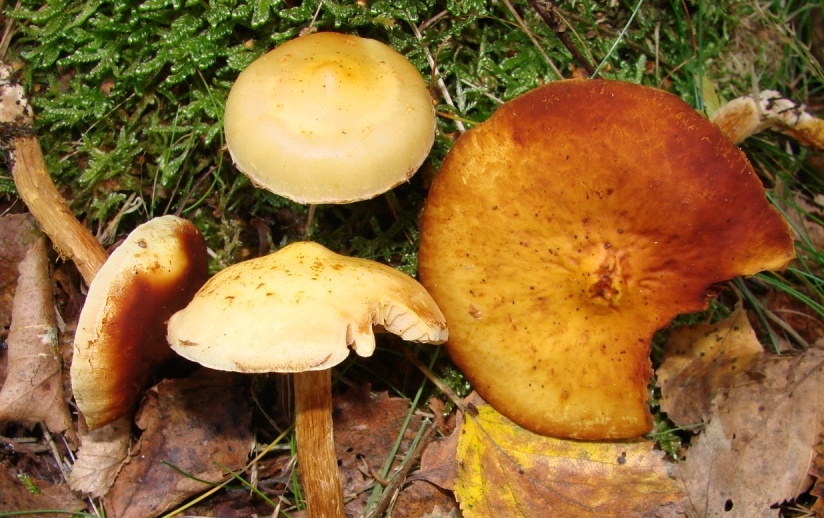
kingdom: Fungi
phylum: Basidiomycota
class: Agaricomycetes
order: Agaricales
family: Hymenogastraceae
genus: Flammula
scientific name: Flammula alnicola
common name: elle-skælhat
